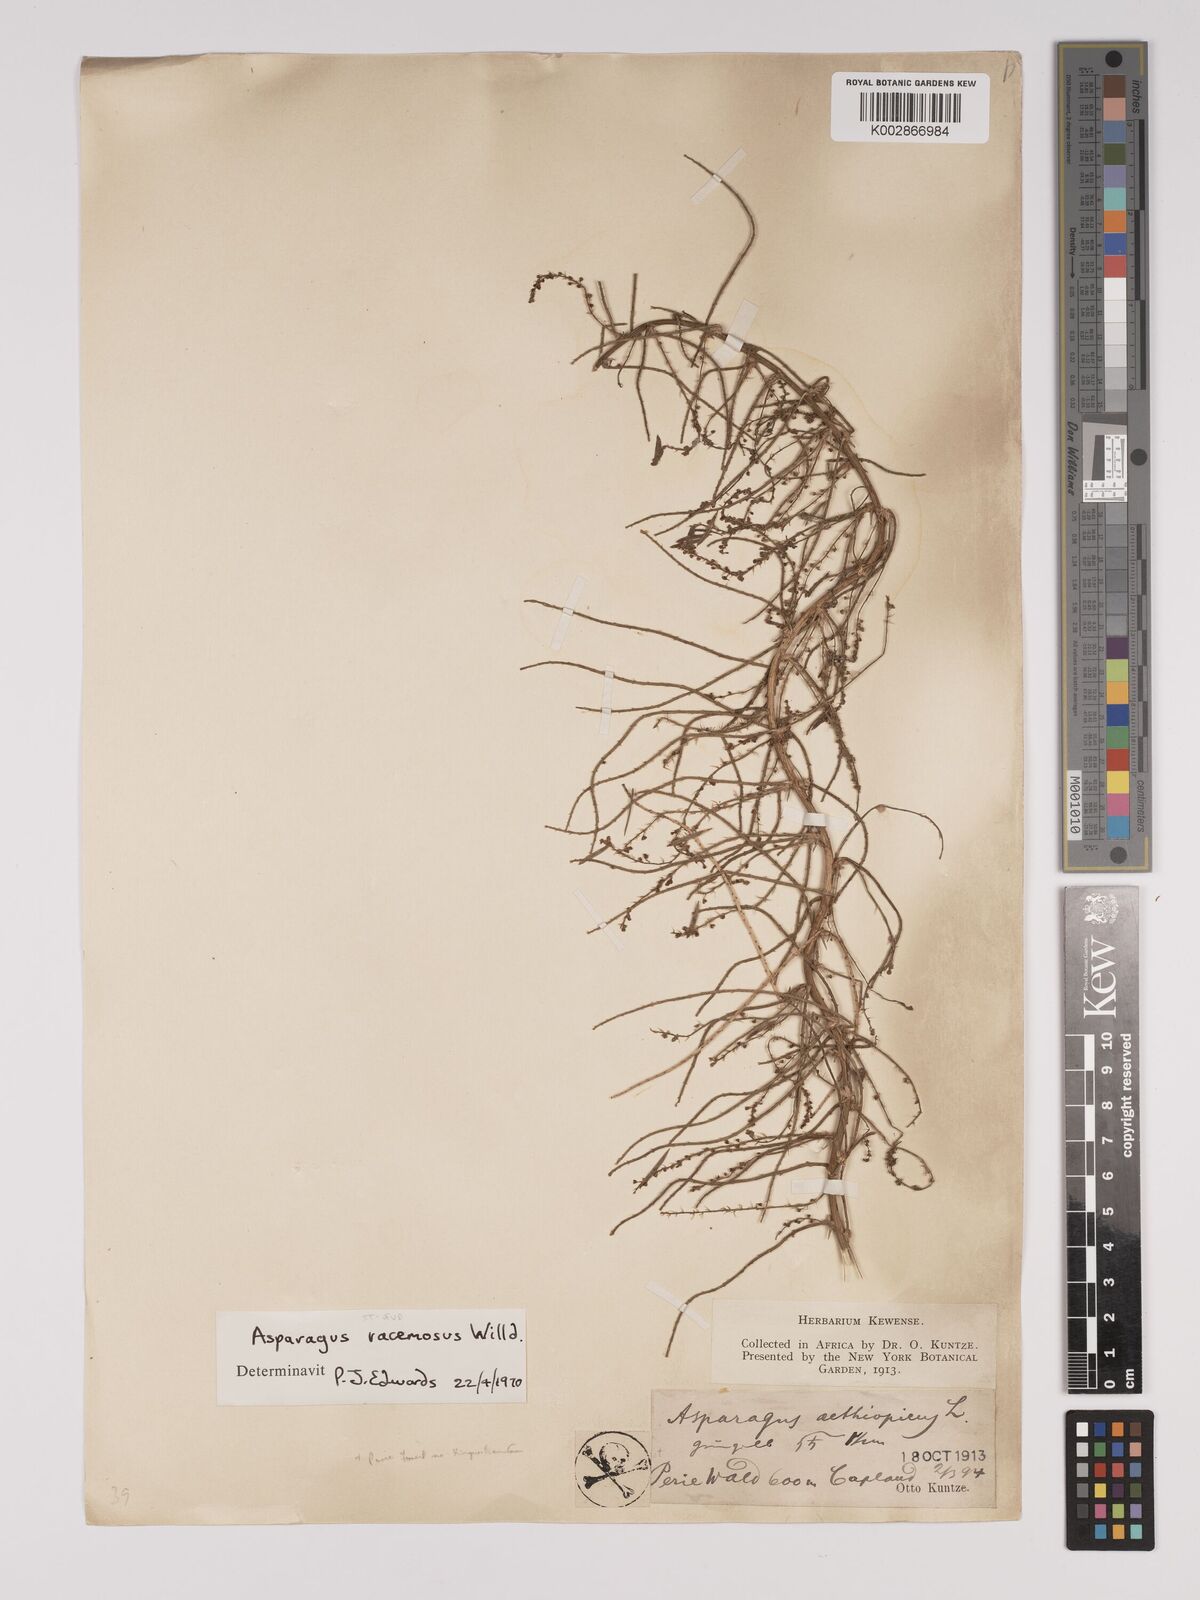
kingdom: Plantae
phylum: Tracheophyta
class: Liliopsida
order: Asparagales
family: Asparagaceae
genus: Asparagus
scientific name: Asparagus racemosus
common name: Asparagus-fern
